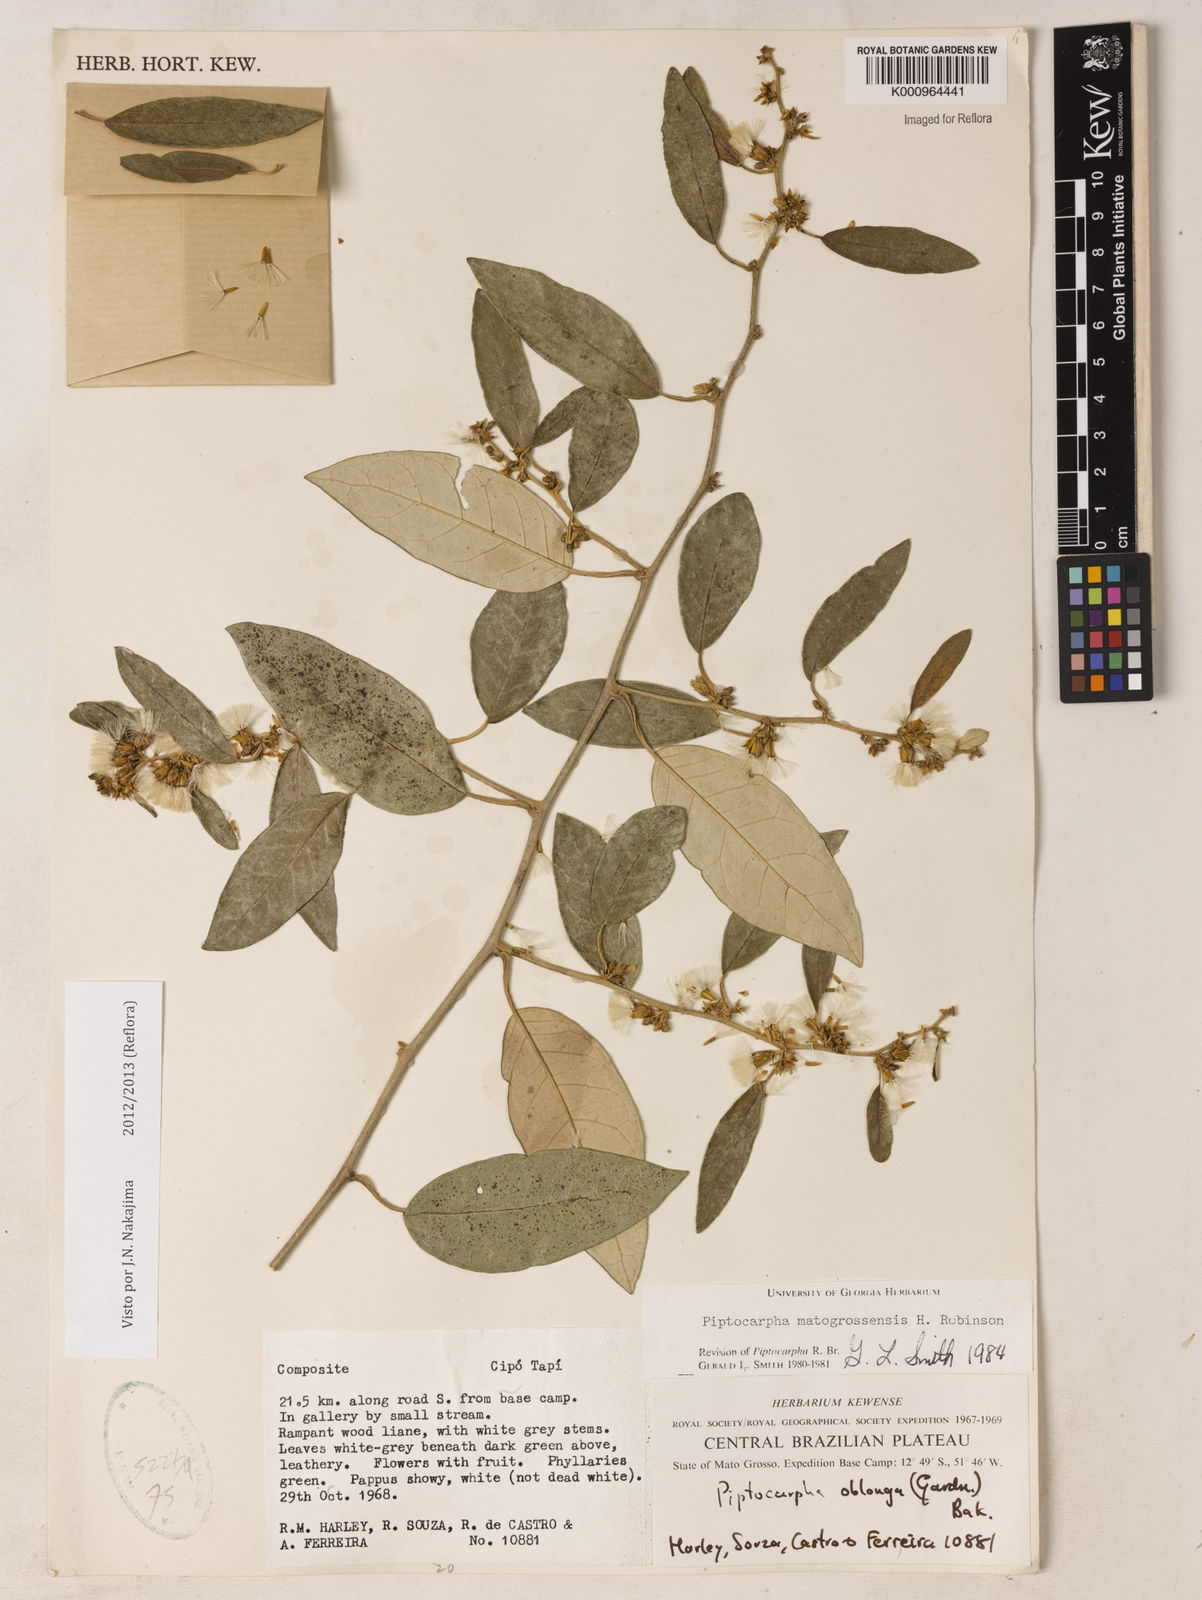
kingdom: Plantae
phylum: Tracheophyta
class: Magnoliopsida
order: Asterales
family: Asteraceae
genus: Piptocarpha
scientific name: Piptocarpha matogrossensis
